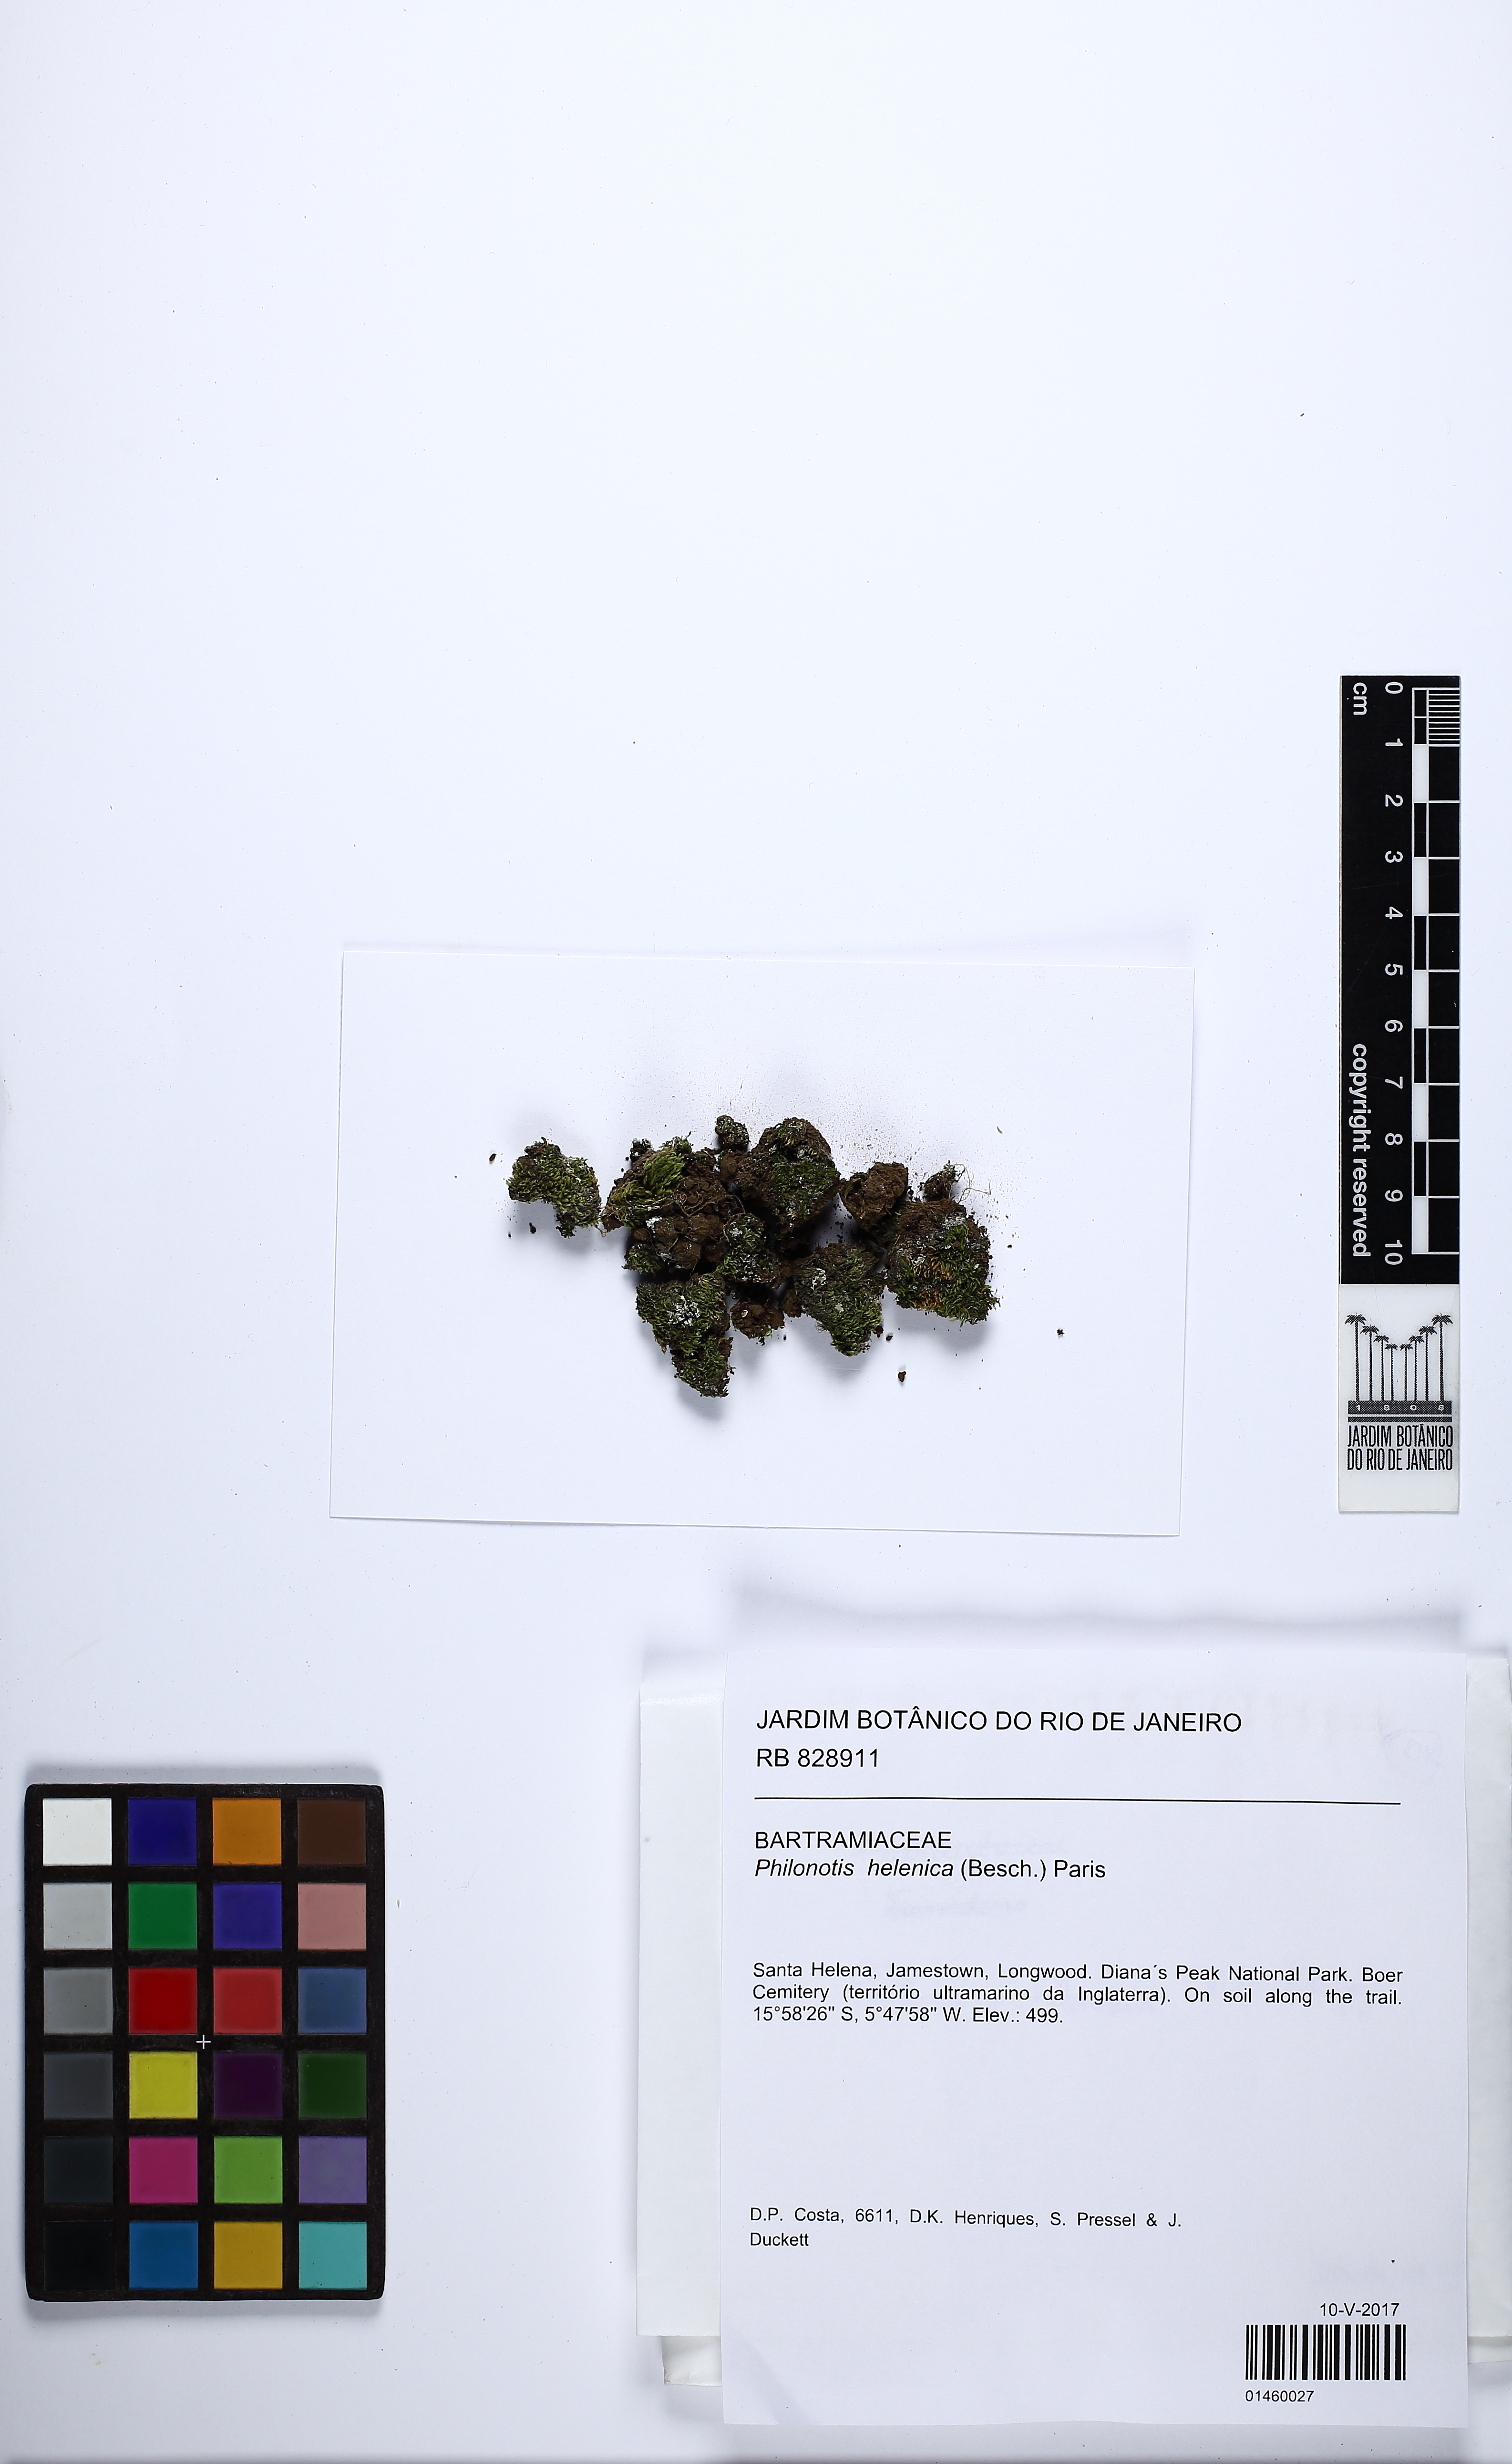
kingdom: Plantae
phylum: Bryophyta
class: Bryopsida
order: Bartramiales
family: Bartramiaceae
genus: Philonotis
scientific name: Philonotis helenica
